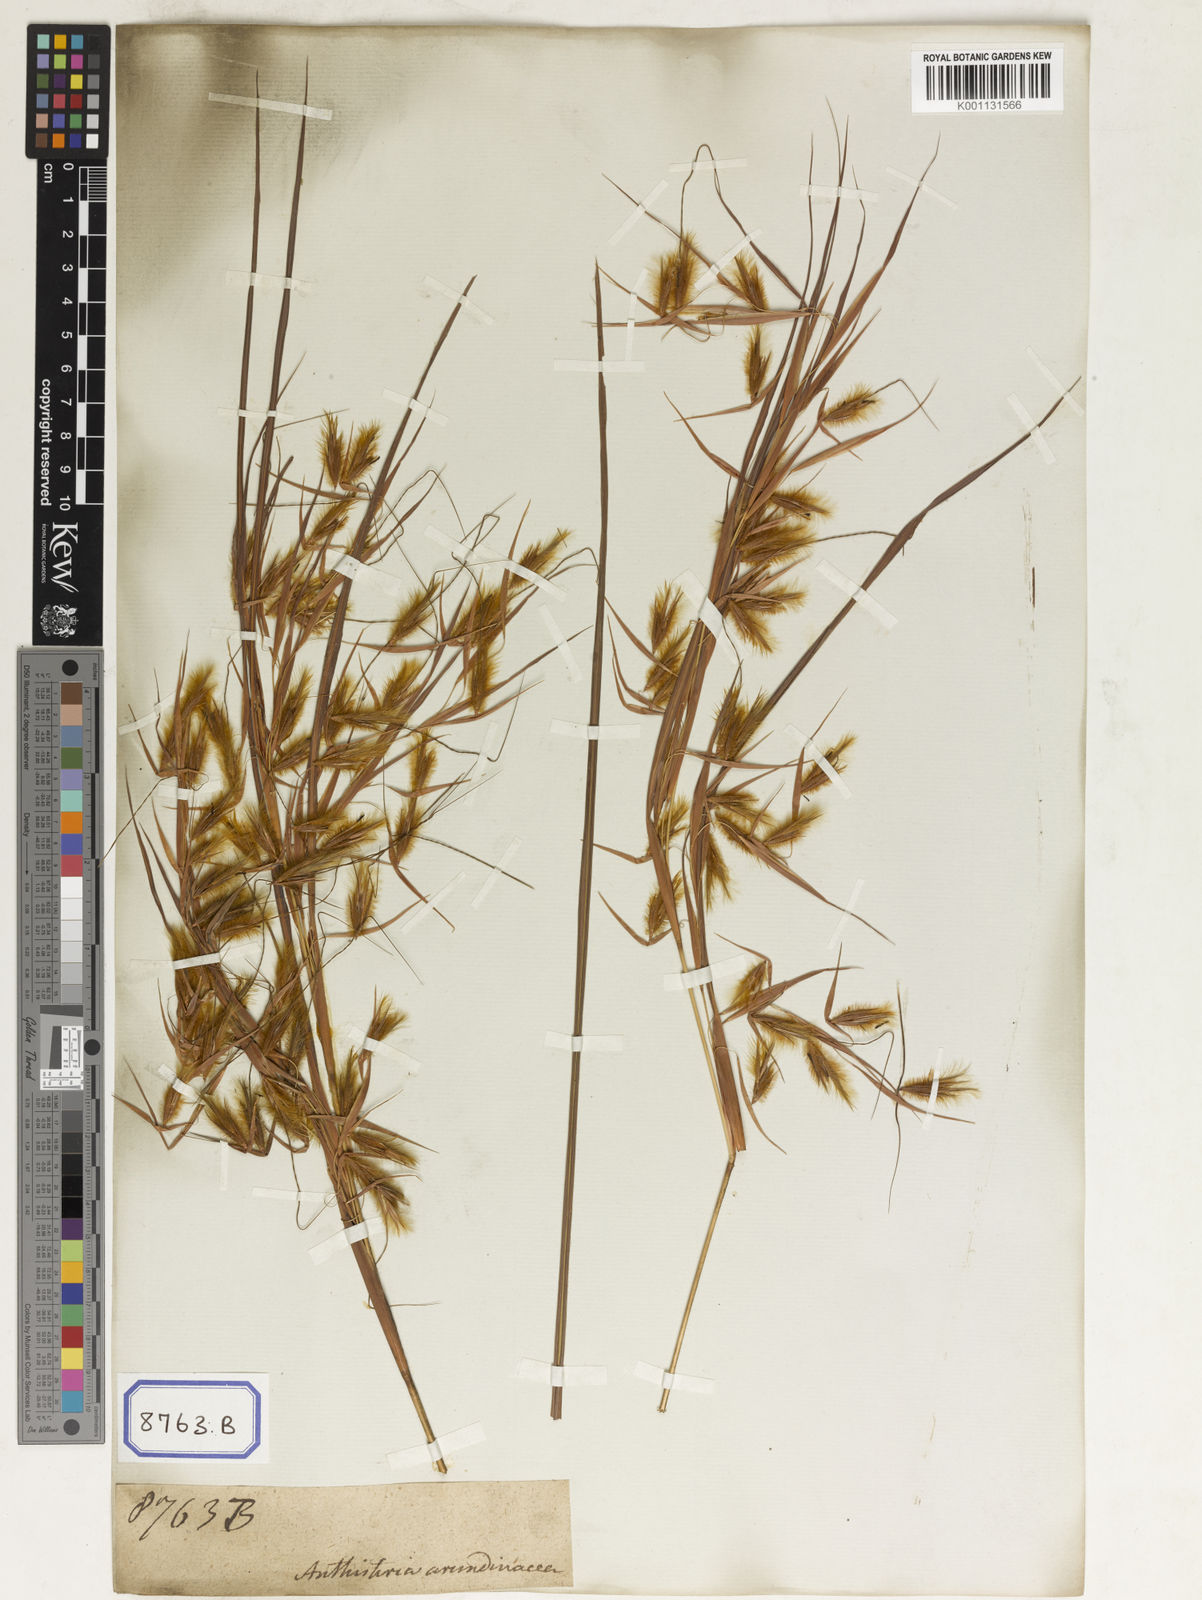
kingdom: Plantae
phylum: Tracheophyta
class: Liliopsida
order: Poales
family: Poaceae
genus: Themeda
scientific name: Themeda
